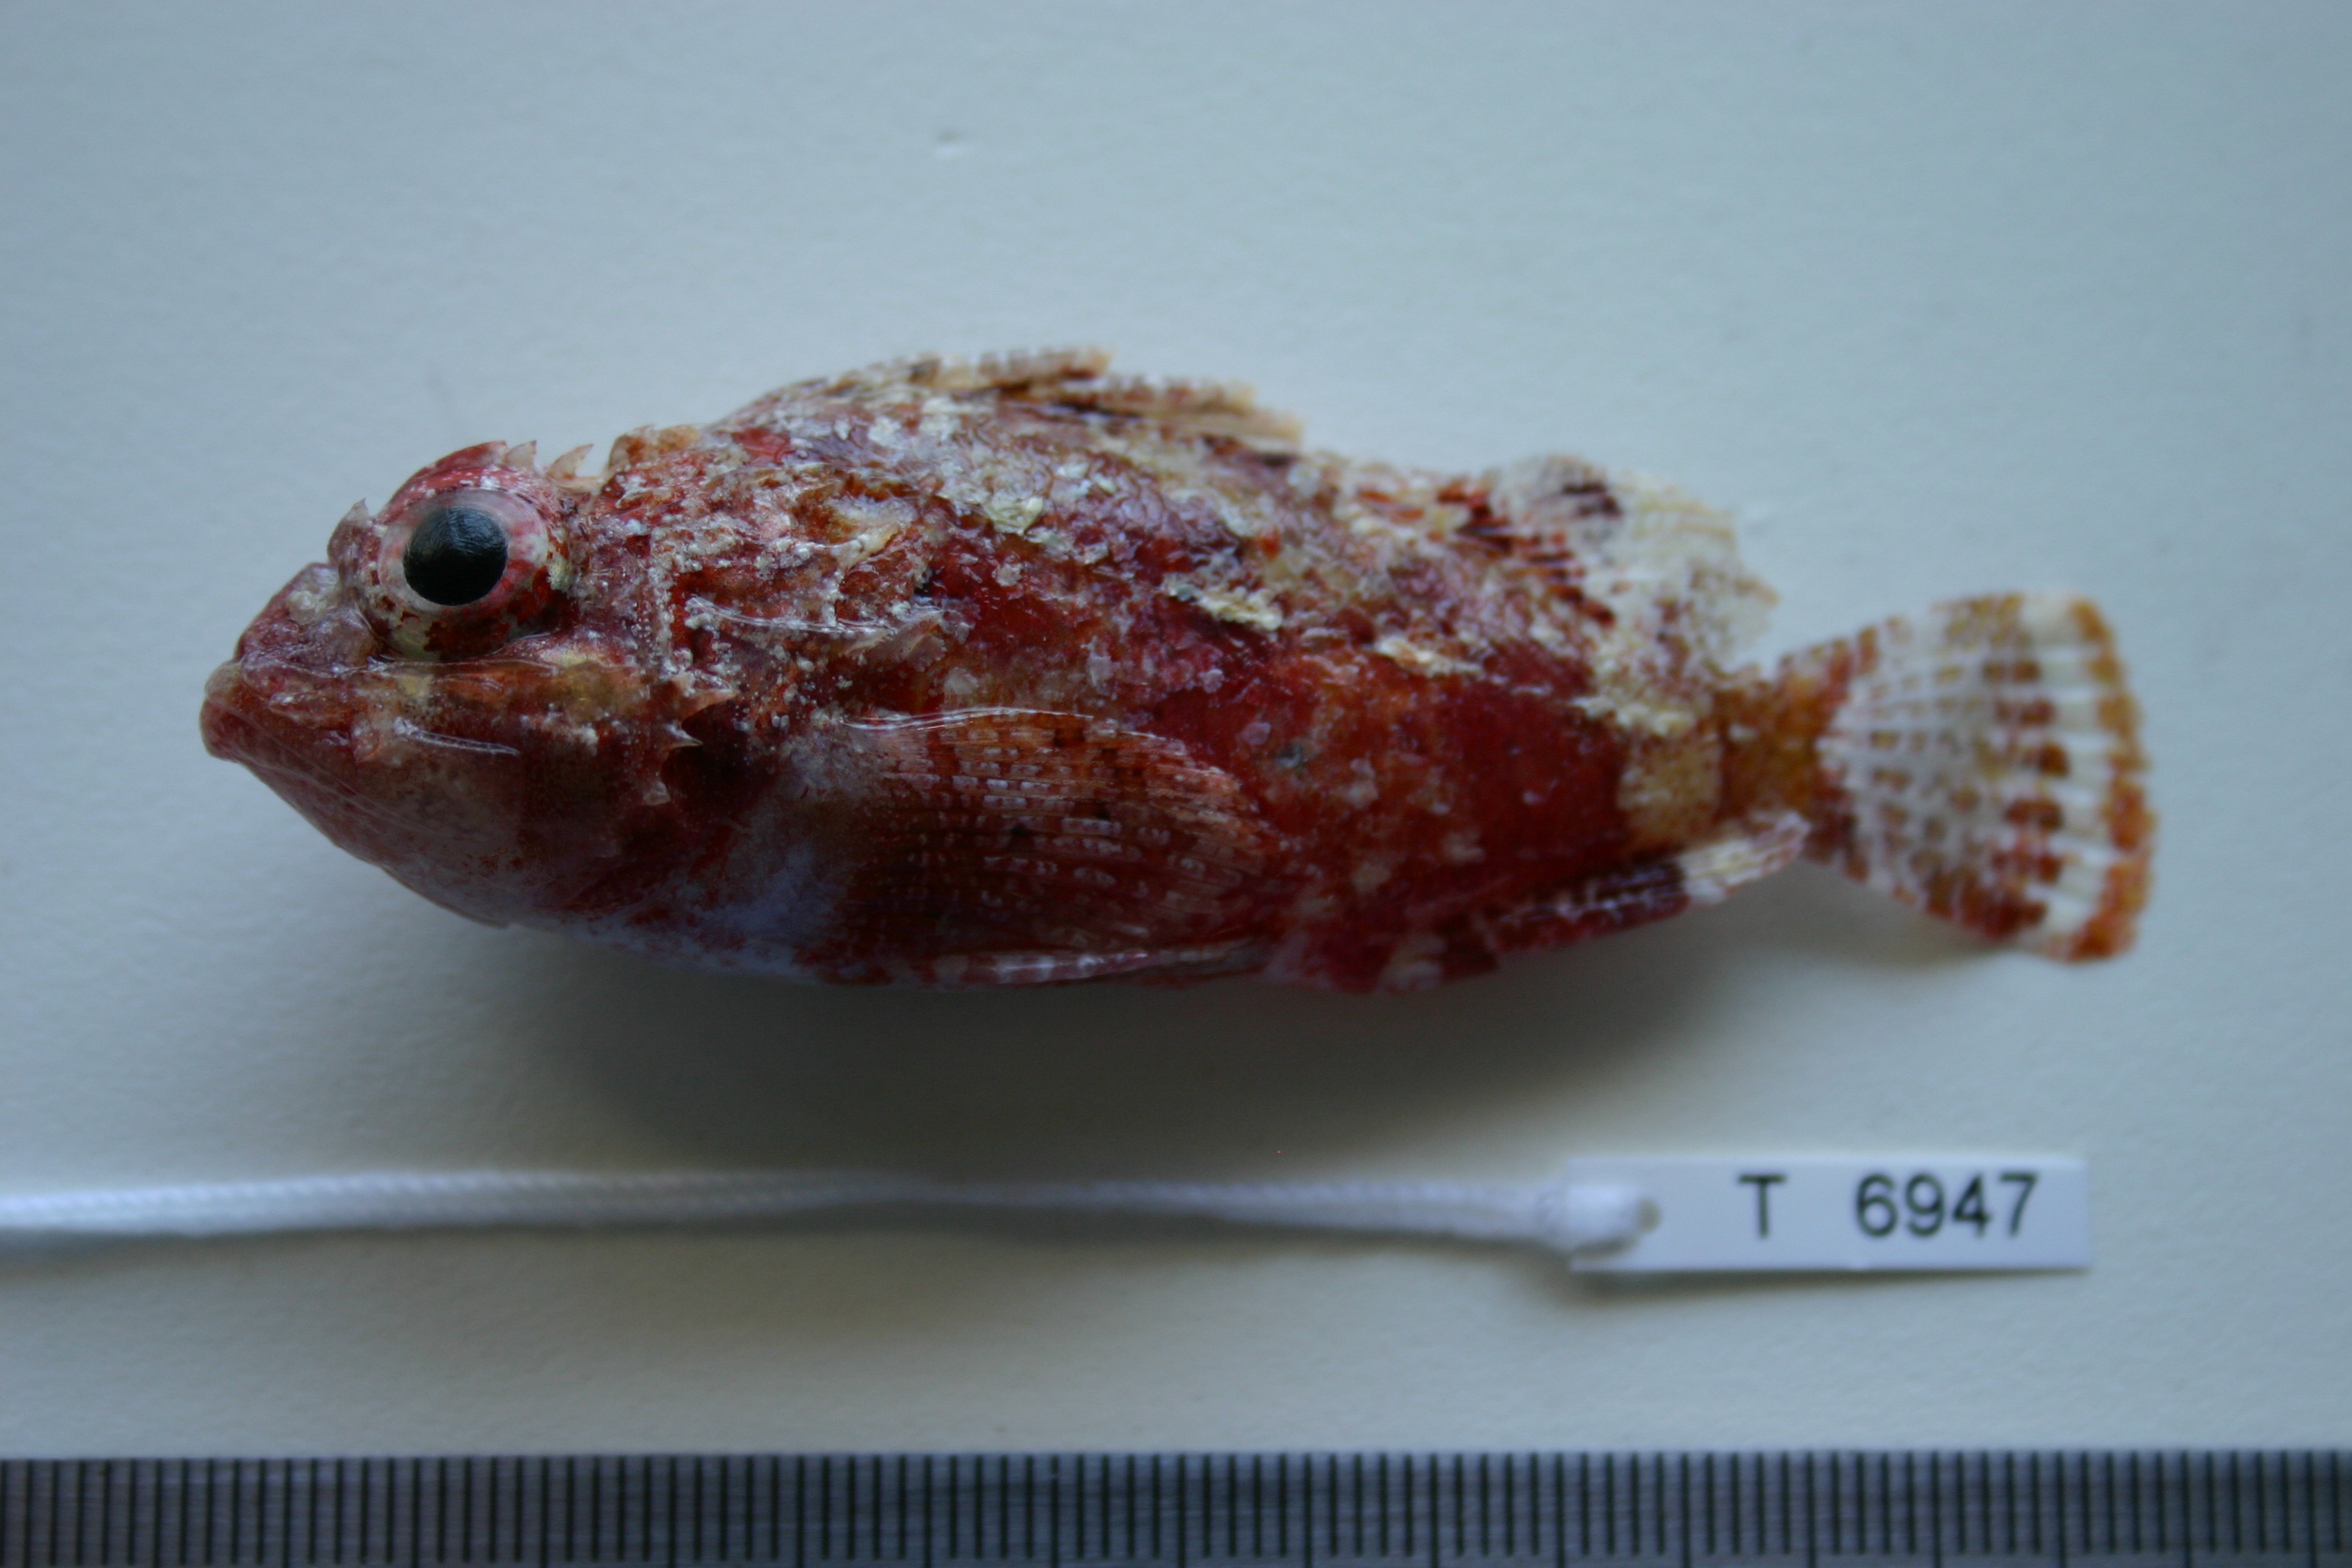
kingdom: Animalia
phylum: Chordata
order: Scorpaeniformes
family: Scorpaenidae
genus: Parascorpaena
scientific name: Parascorpaena mossambica
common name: Mozambique scorpionfish
